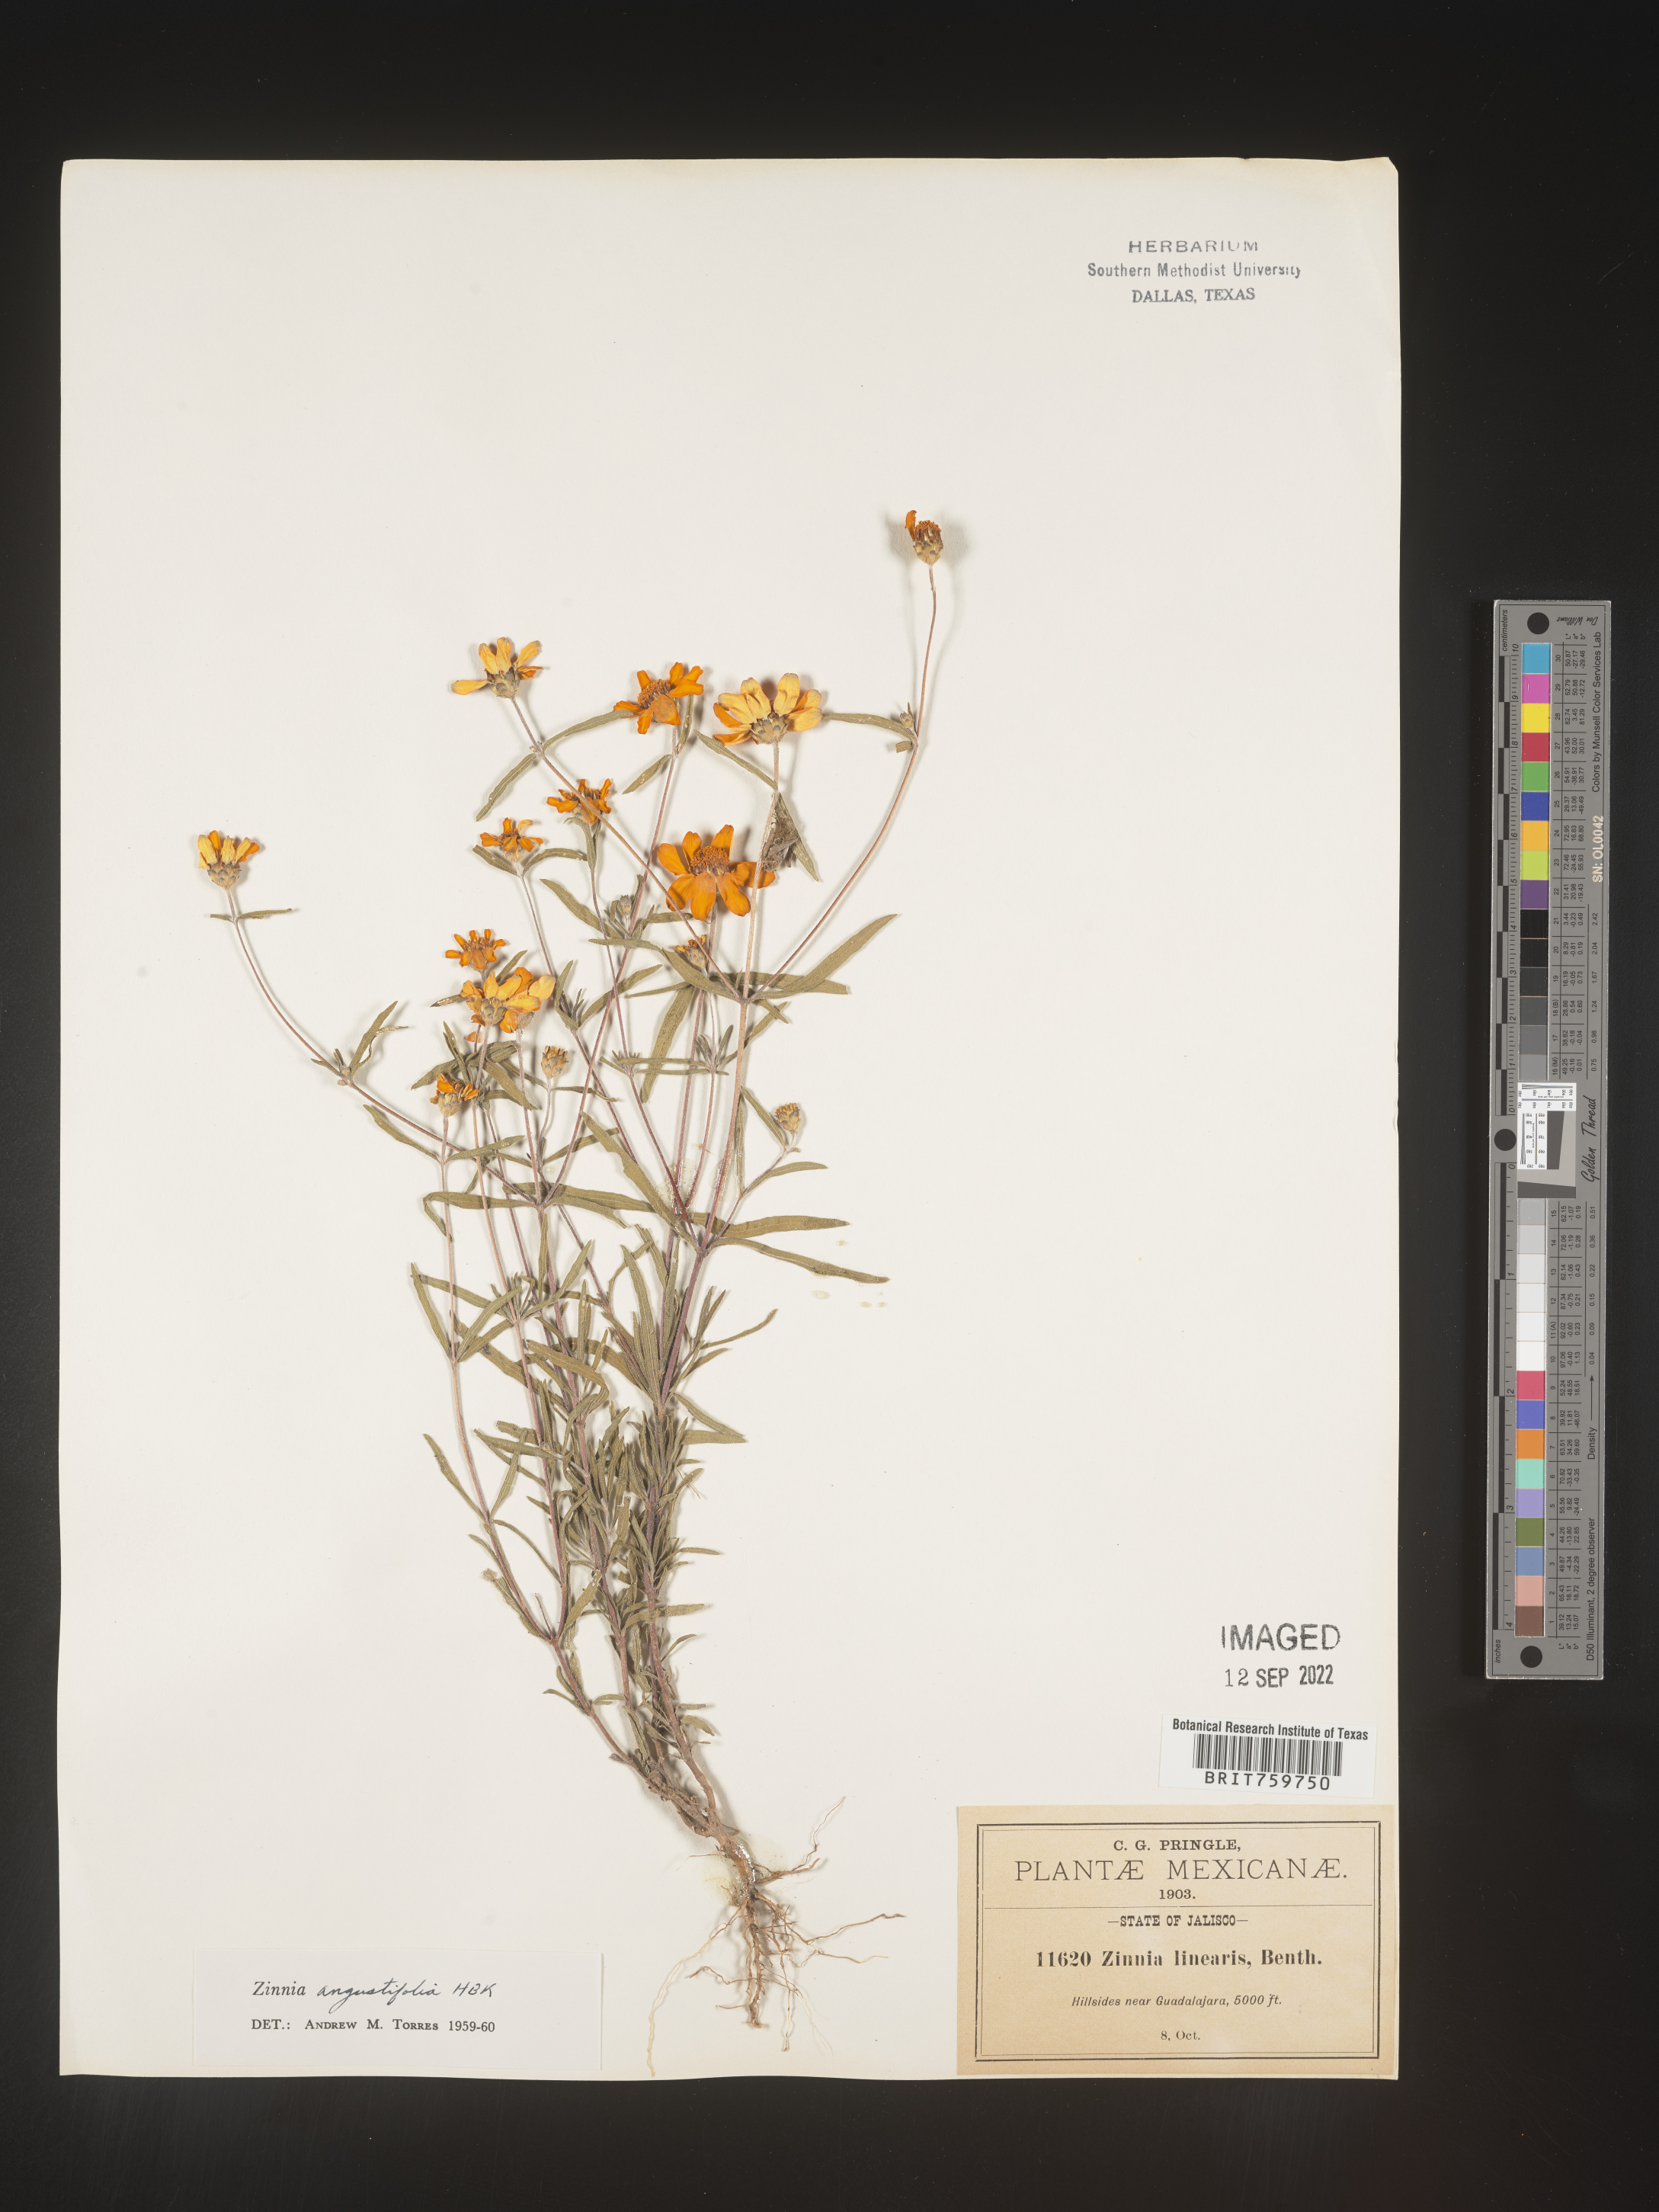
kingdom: Plantae
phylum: Tracheophyta
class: Magnoliopsida
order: Asterales
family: Asteraceae
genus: Zinnia
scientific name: Zinnia
